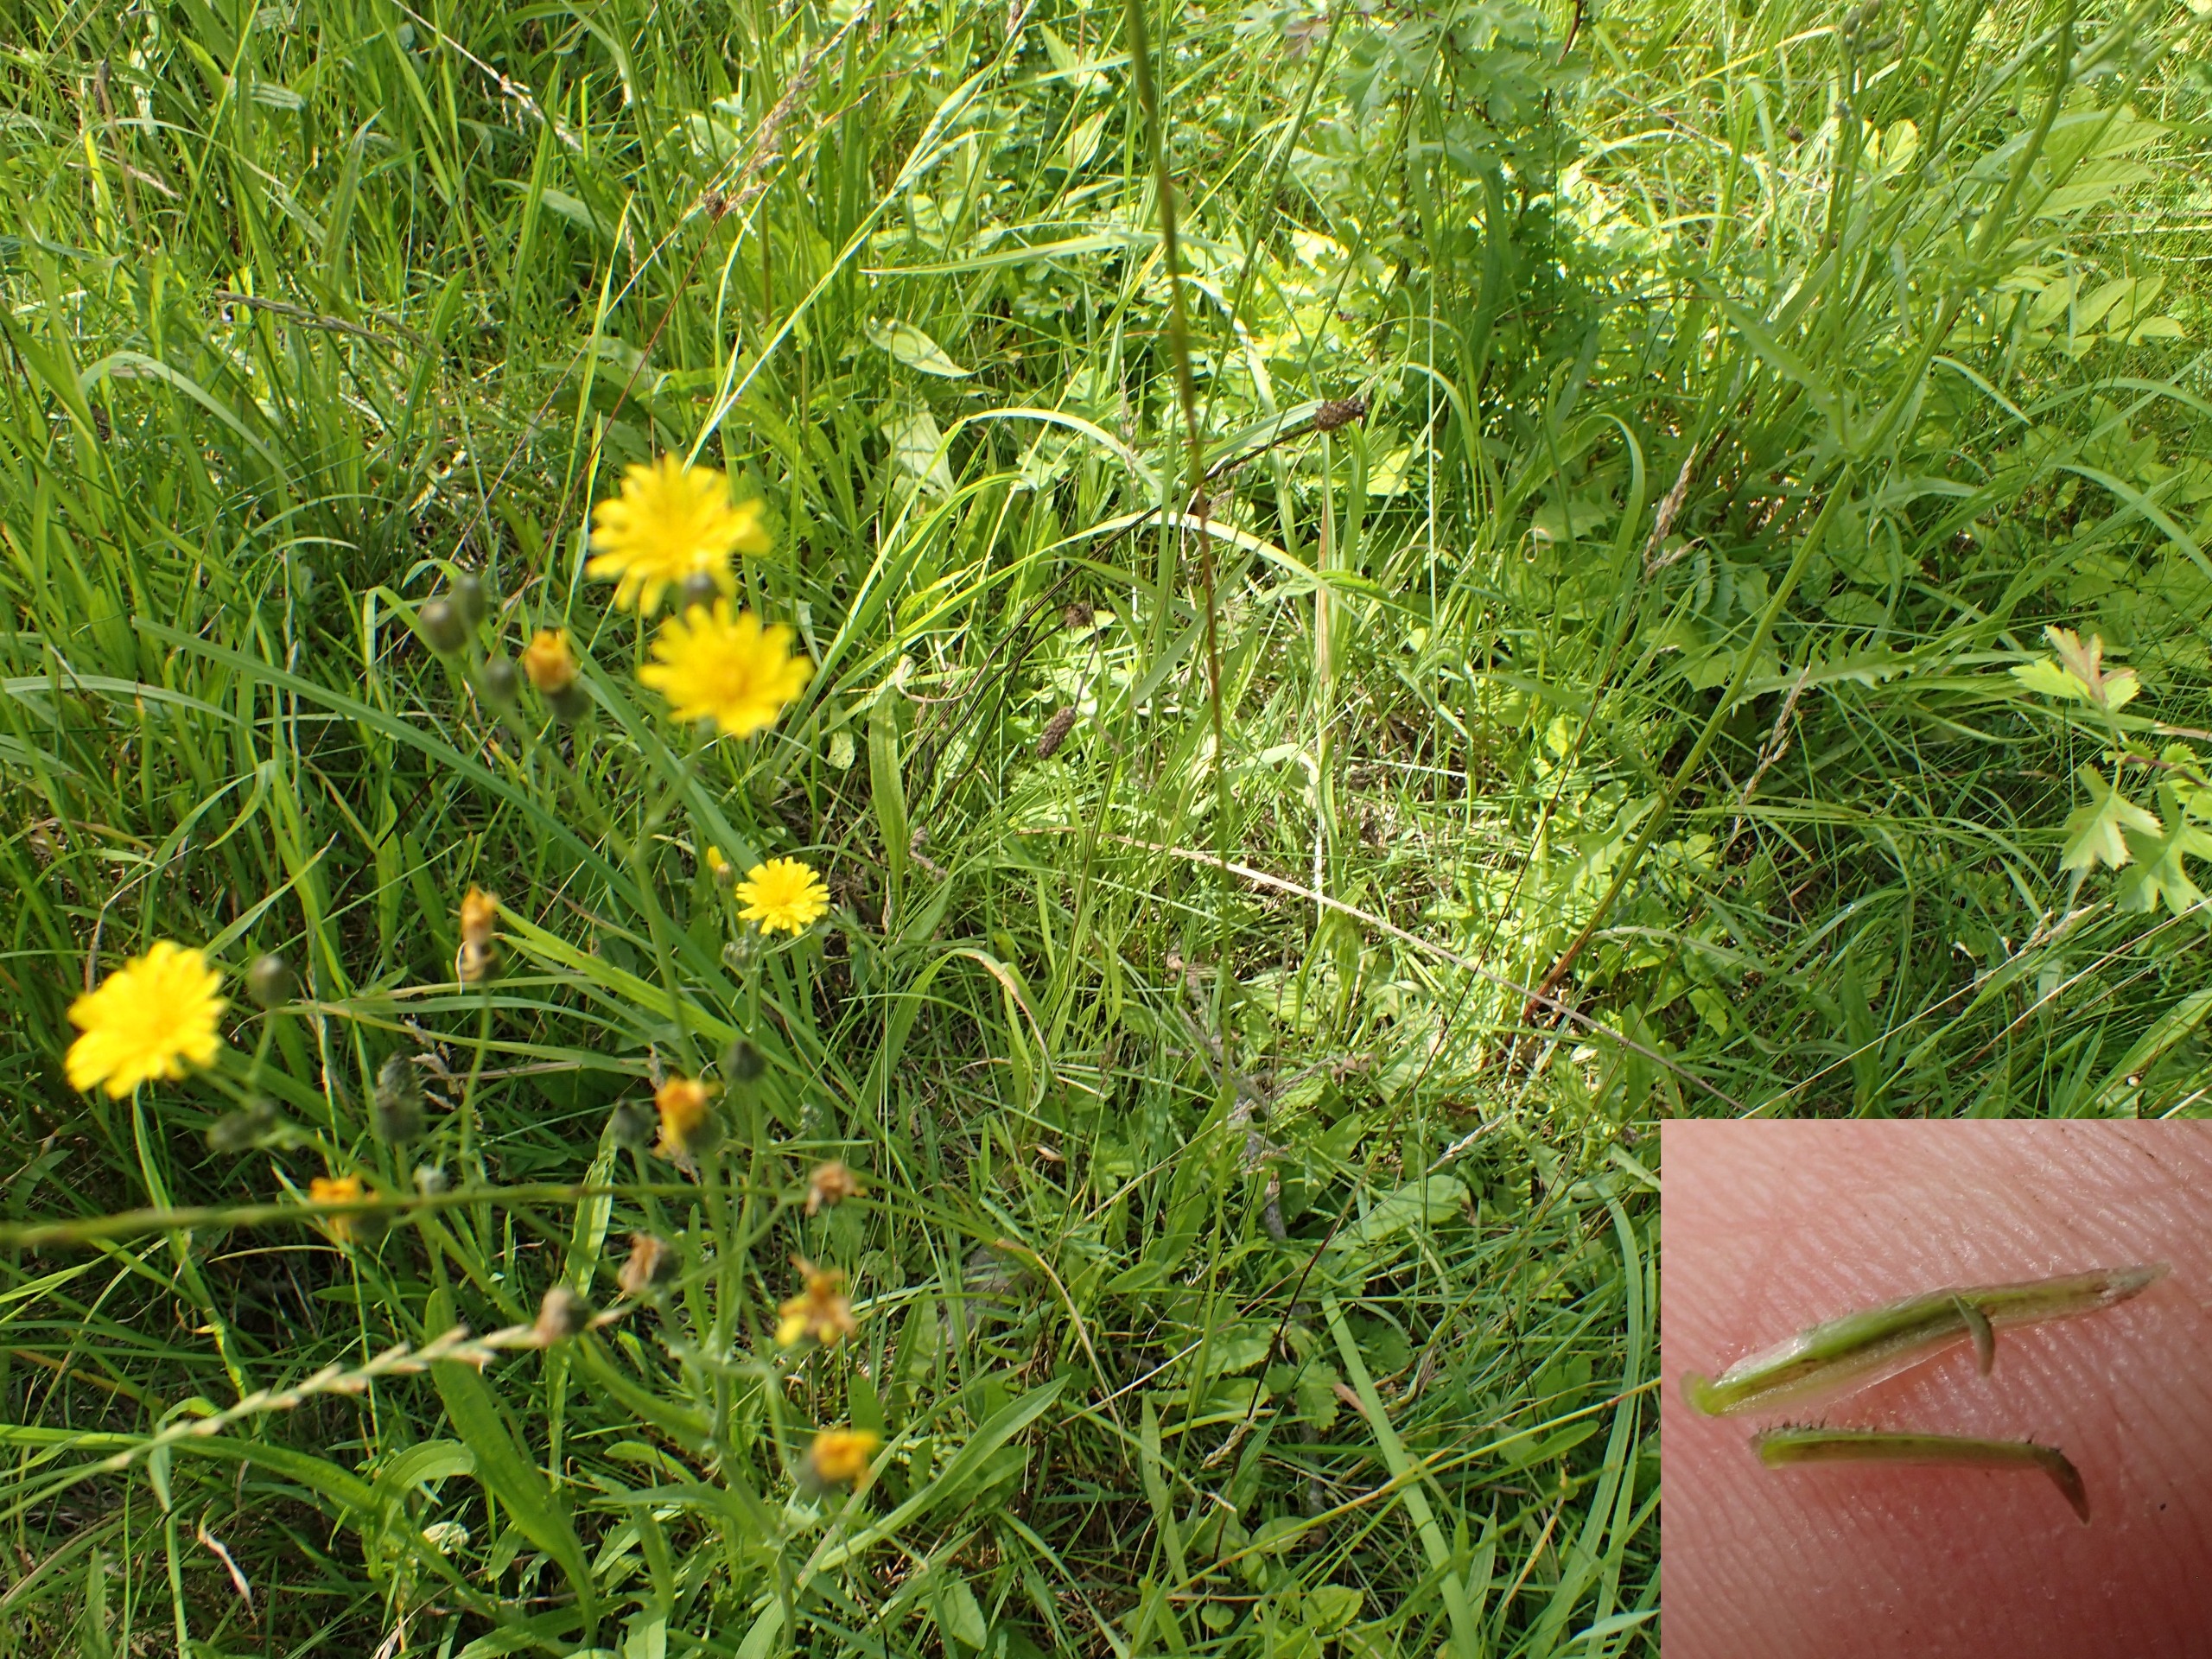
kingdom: Plantae
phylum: Tracheophyta
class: Magnoliopsida
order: Asterales
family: Asteraceae
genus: Crepis
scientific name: Crepis capillaris
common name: Grøn høgeskæg
